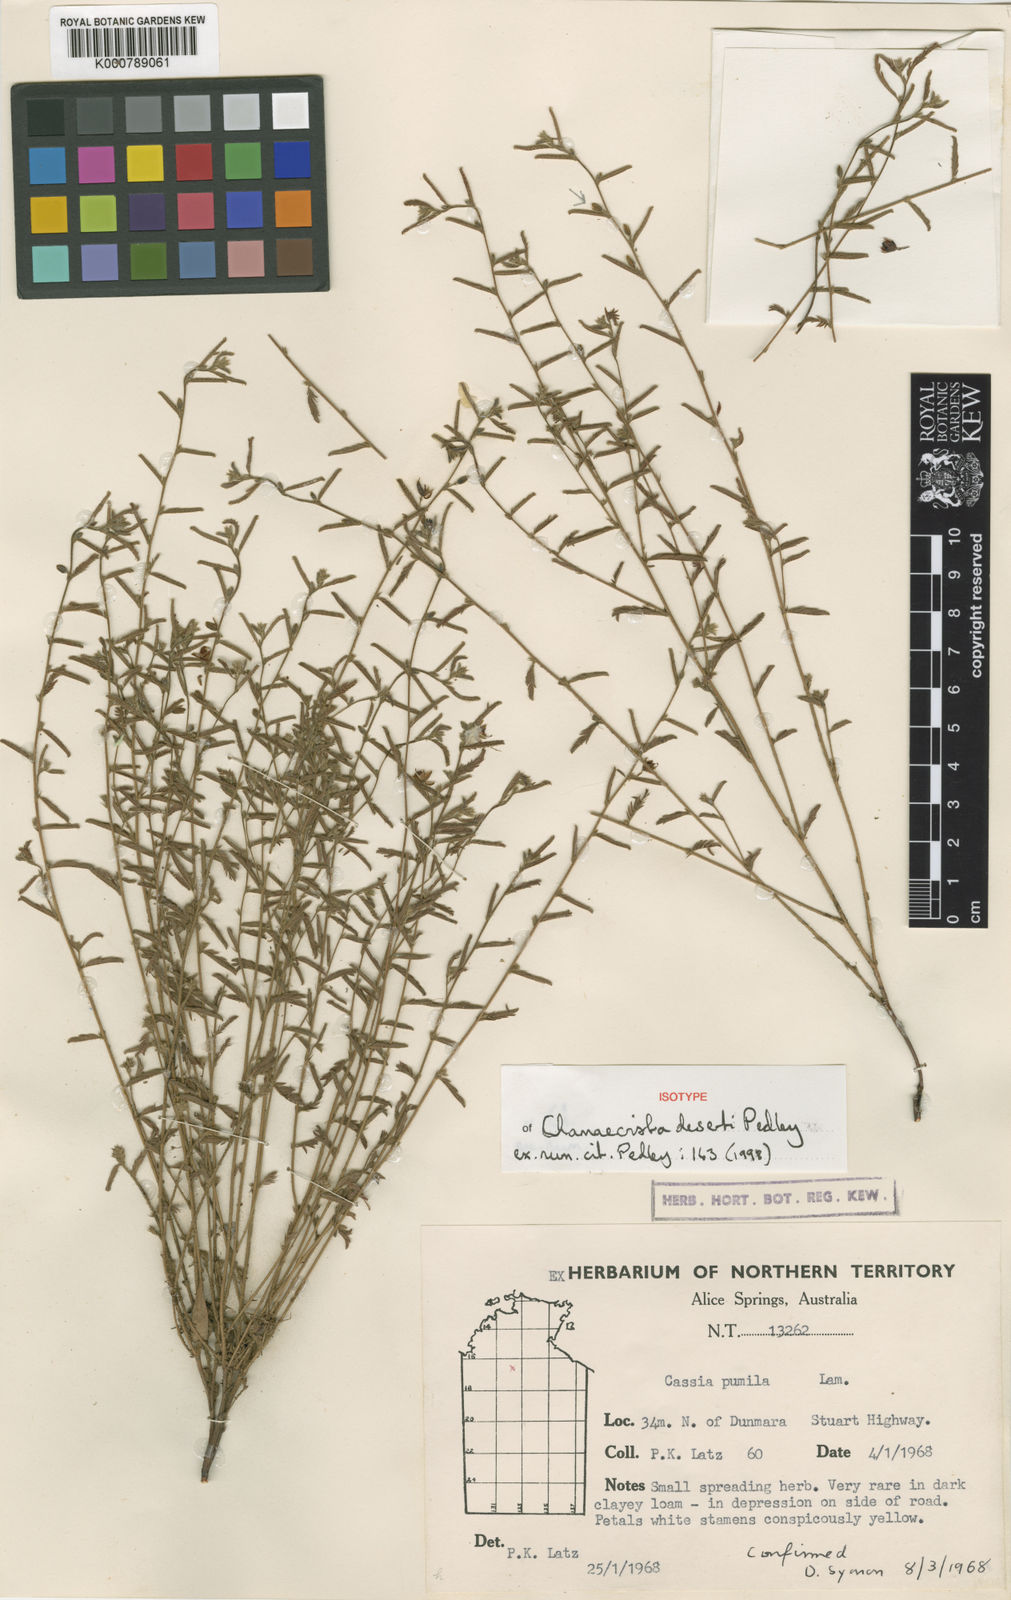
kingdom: Plantae
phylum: Tracheophyta
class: Magnoliopsida
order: Fabales
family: Fabaceae
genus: Chamaecrista
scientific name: Chamaecrista deserti
